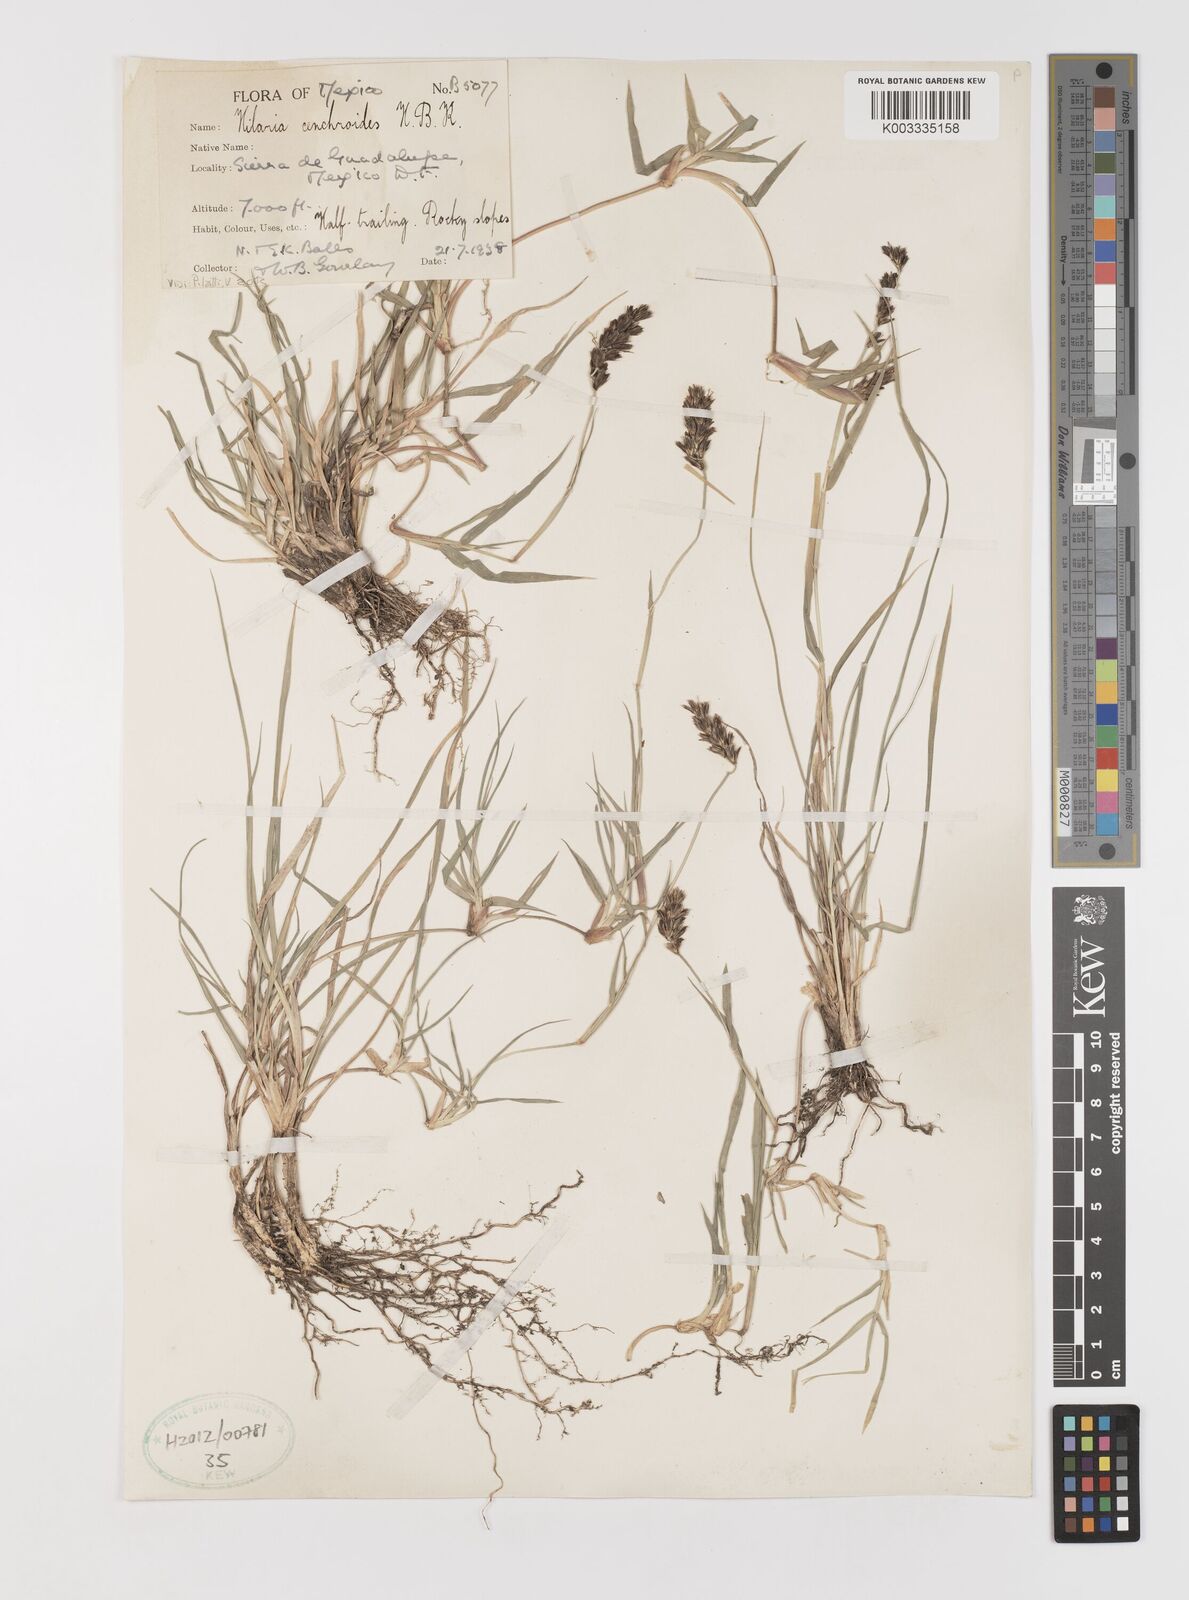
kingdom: Plantae
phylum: Tracheophyta
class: Liliopsida
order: Poales
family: Poaceae
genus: Hilaria
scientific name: Hilaria cenchroides
